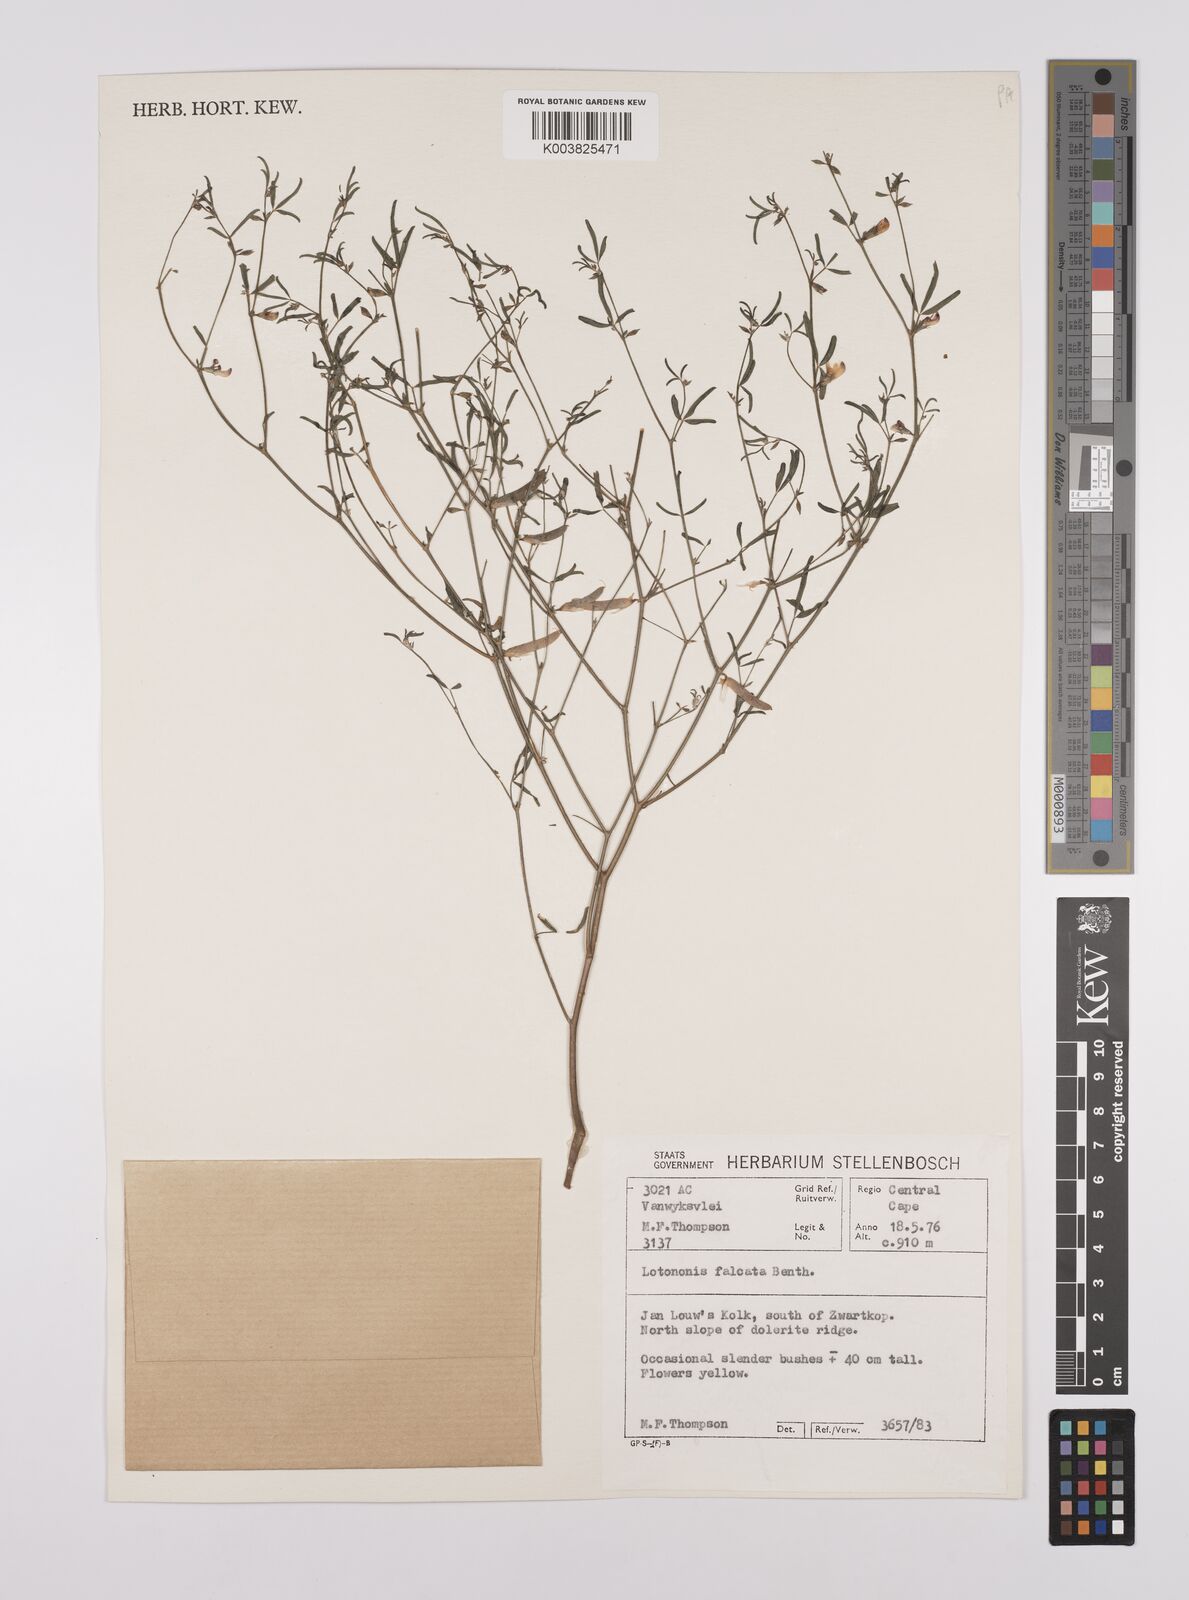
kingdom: Plantae
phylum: Tracheophyta
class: Magnoliopsida
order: Fabales
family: Fabaceae
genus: Lotononis
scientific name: Lotononis falcata
